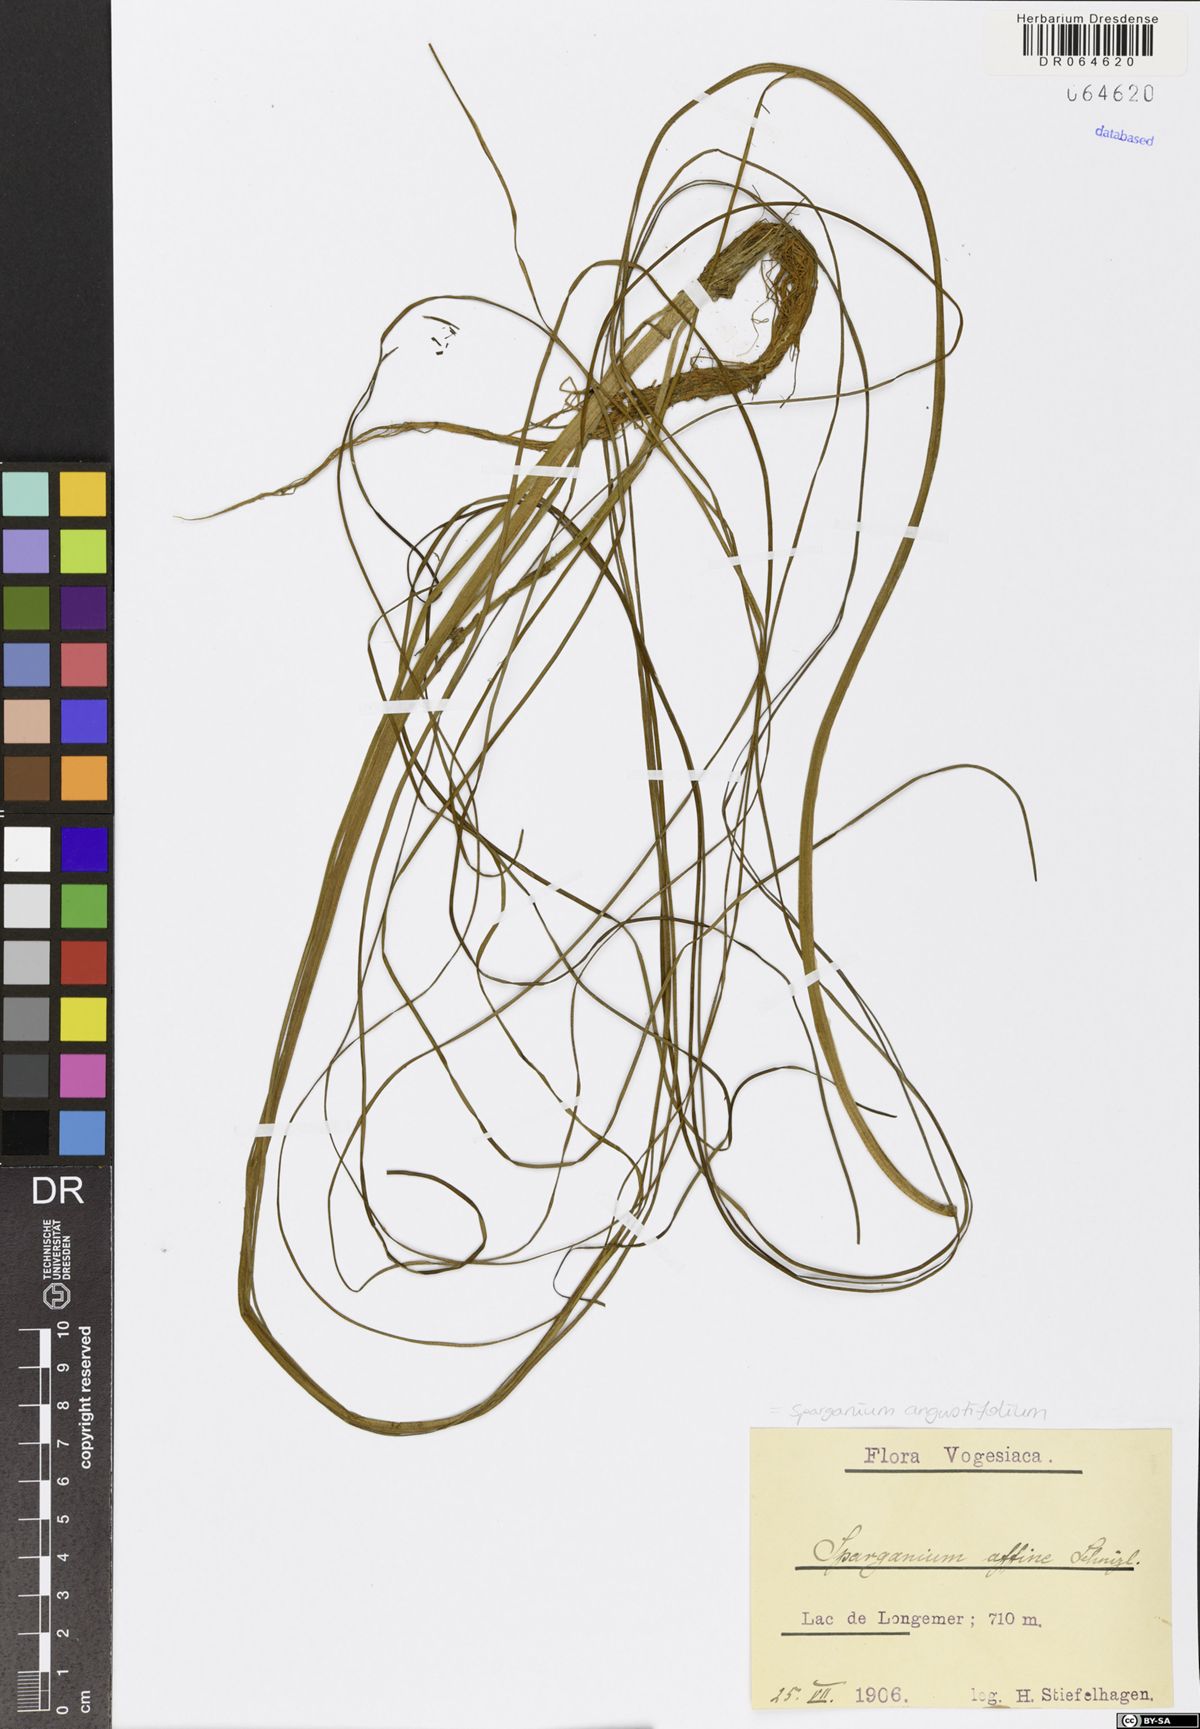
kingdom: Plantae
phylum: Tracheophyta
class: Liliopsida
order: Poales
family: Typhaceae
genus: Sparganium
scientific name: Sparganium angustifolium
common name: Floating bur-reed
